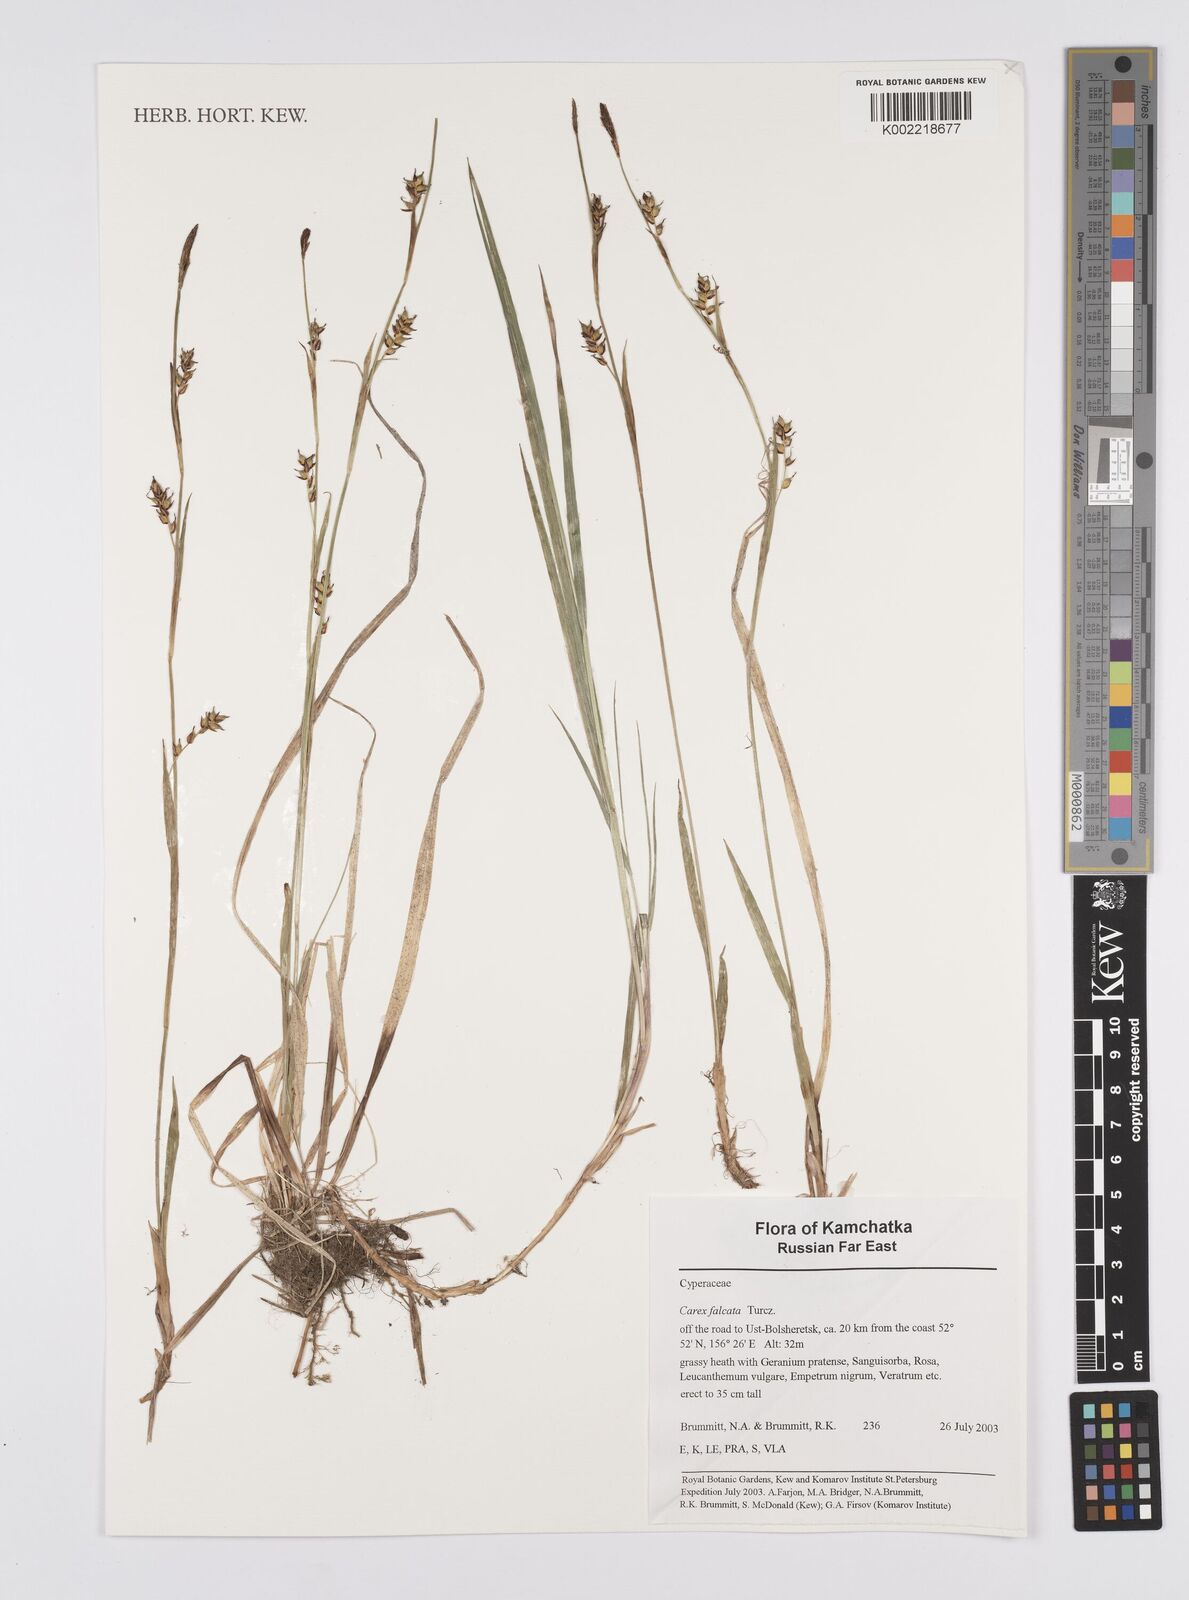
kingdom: Plantae
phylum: Tracheophyta
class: Liliopsida
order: Poales
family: Cyperaceae
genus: Carex
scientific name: Carex vaginata
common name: Sheathed sedge
